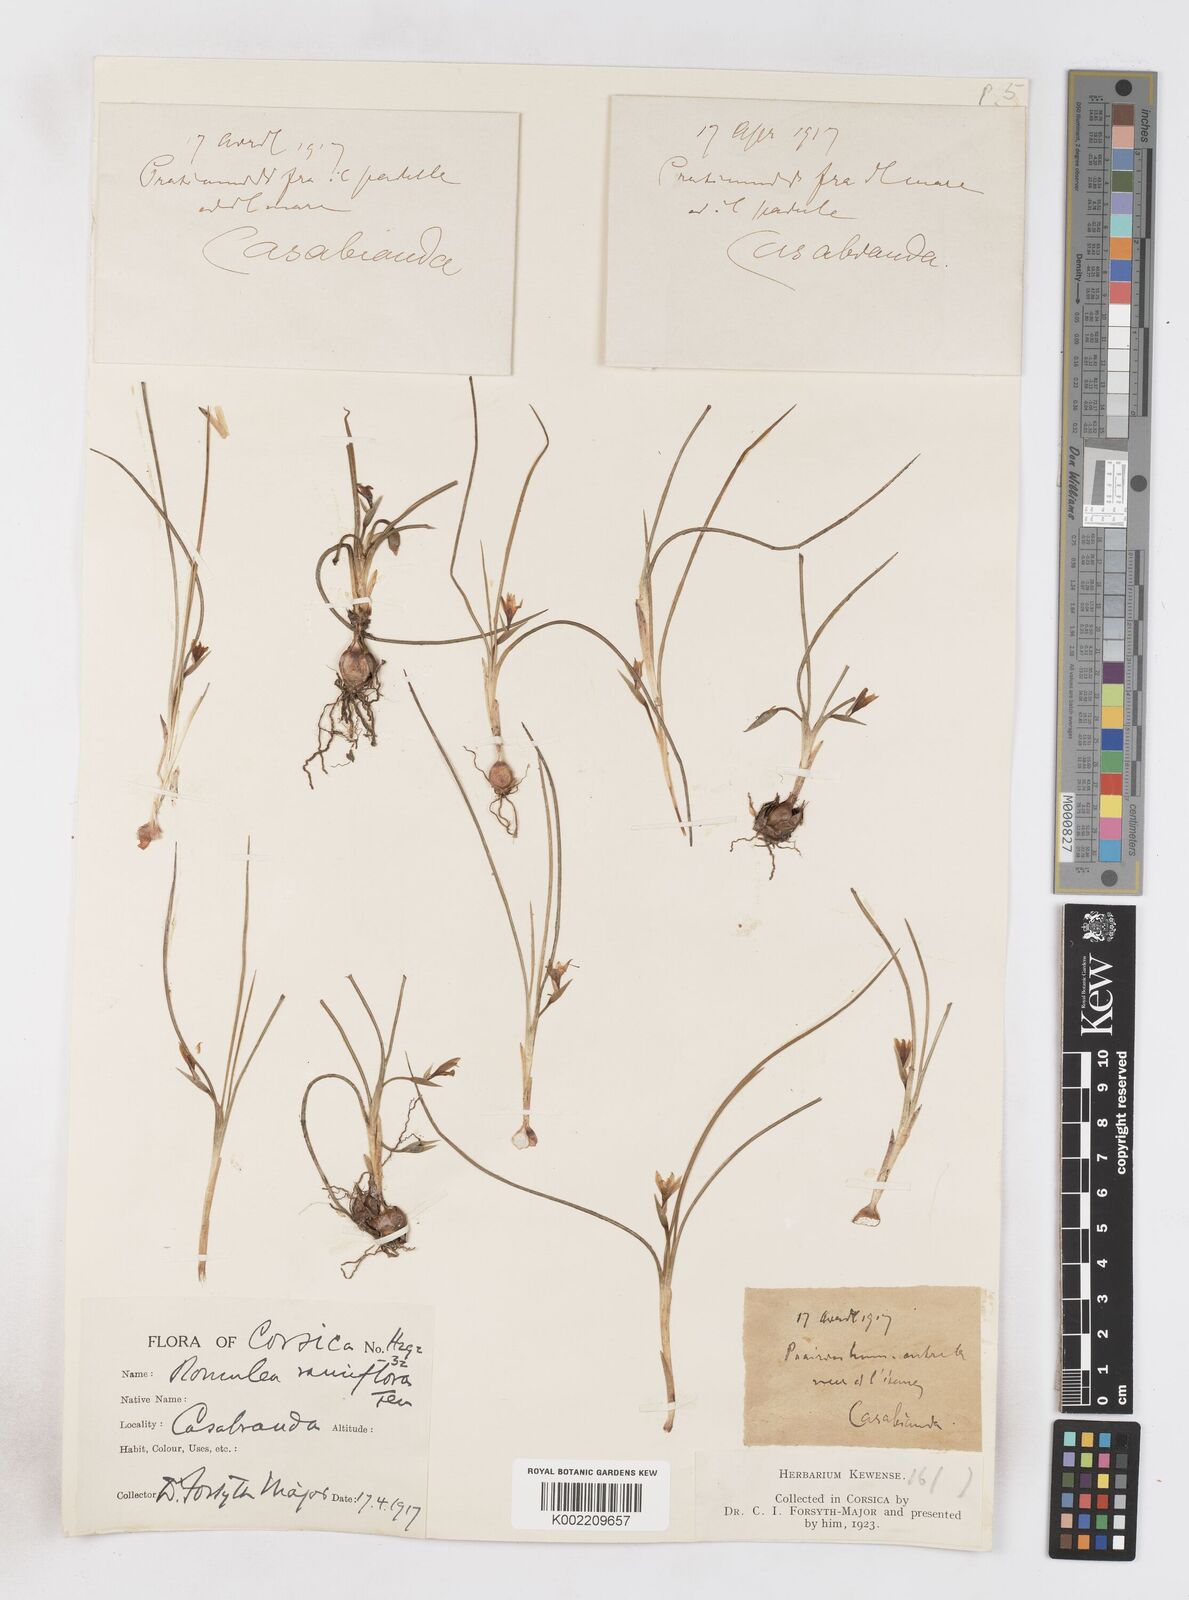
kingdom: Plantae
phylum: Tracheophyta
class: Liliopsida
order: Asparagales
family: Iridaceae
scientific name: Iridaceae
